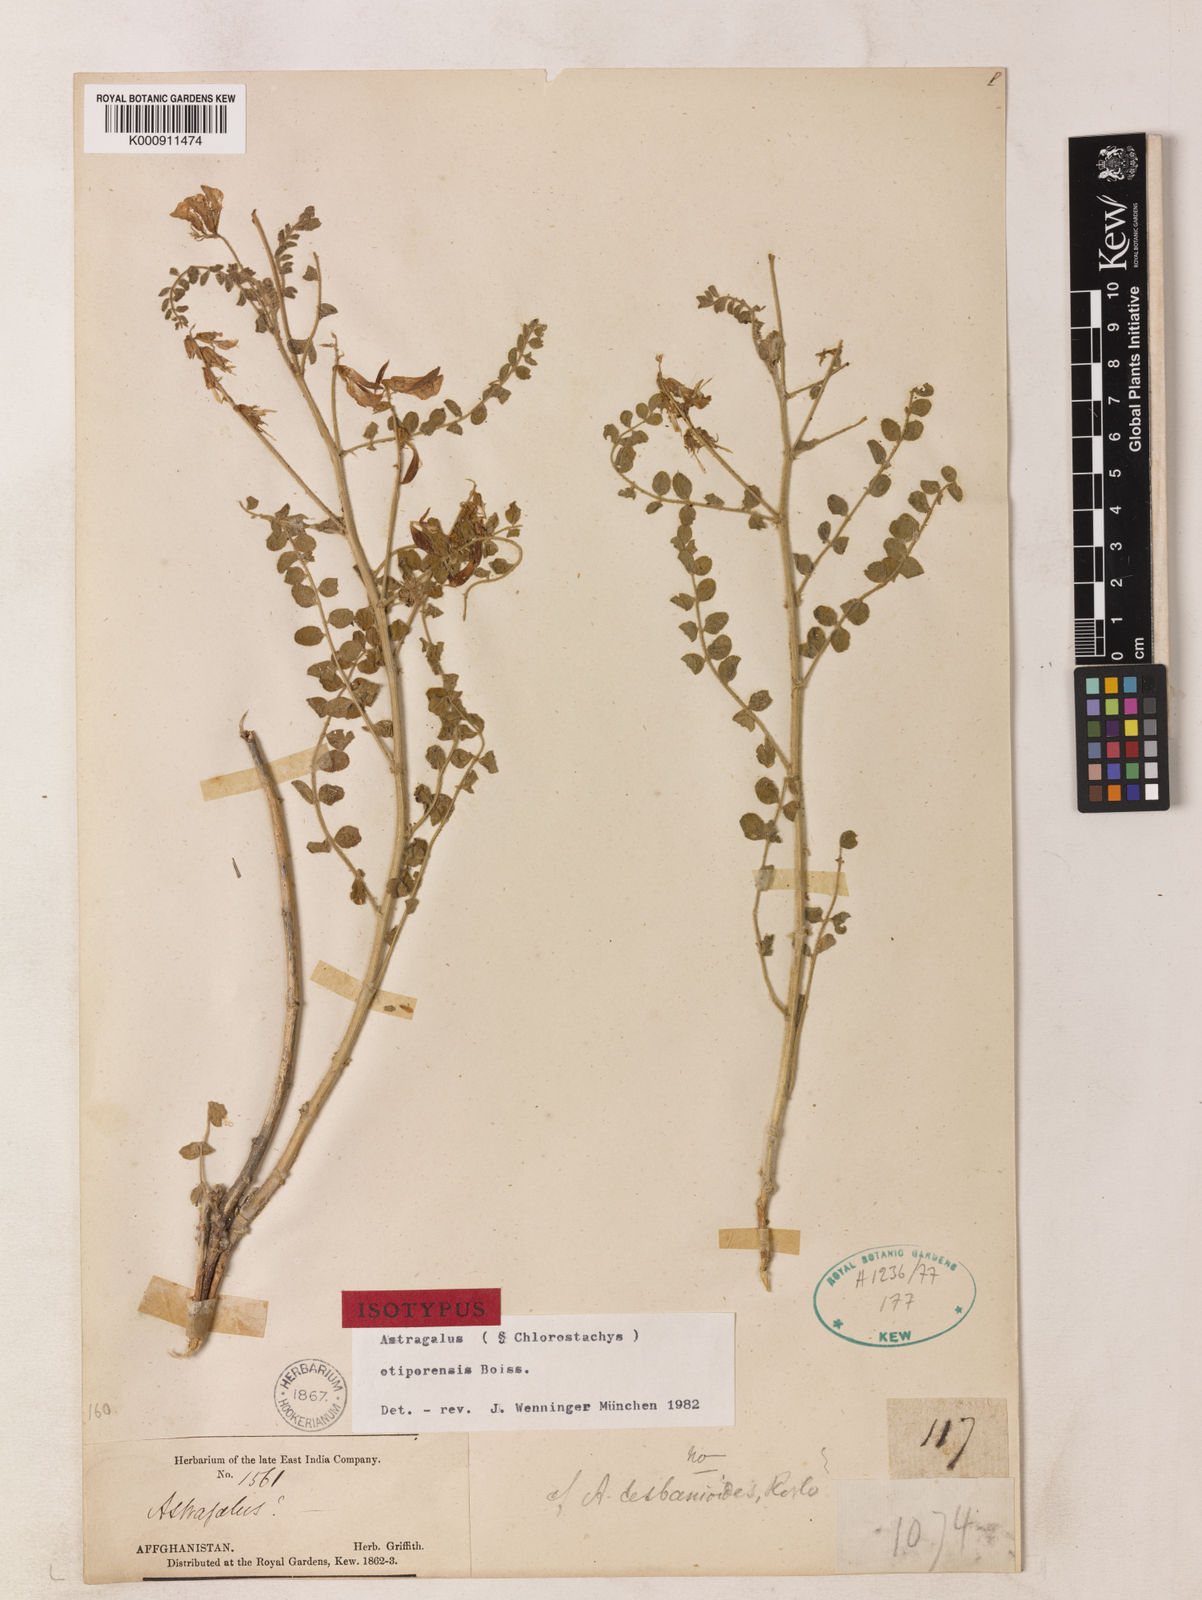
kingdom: Plantae
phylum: Tracheophyta
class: Magnoliopsida
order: Fabales
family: Fabaceae
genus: Astragalus
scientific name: Astragalus otiporensis
